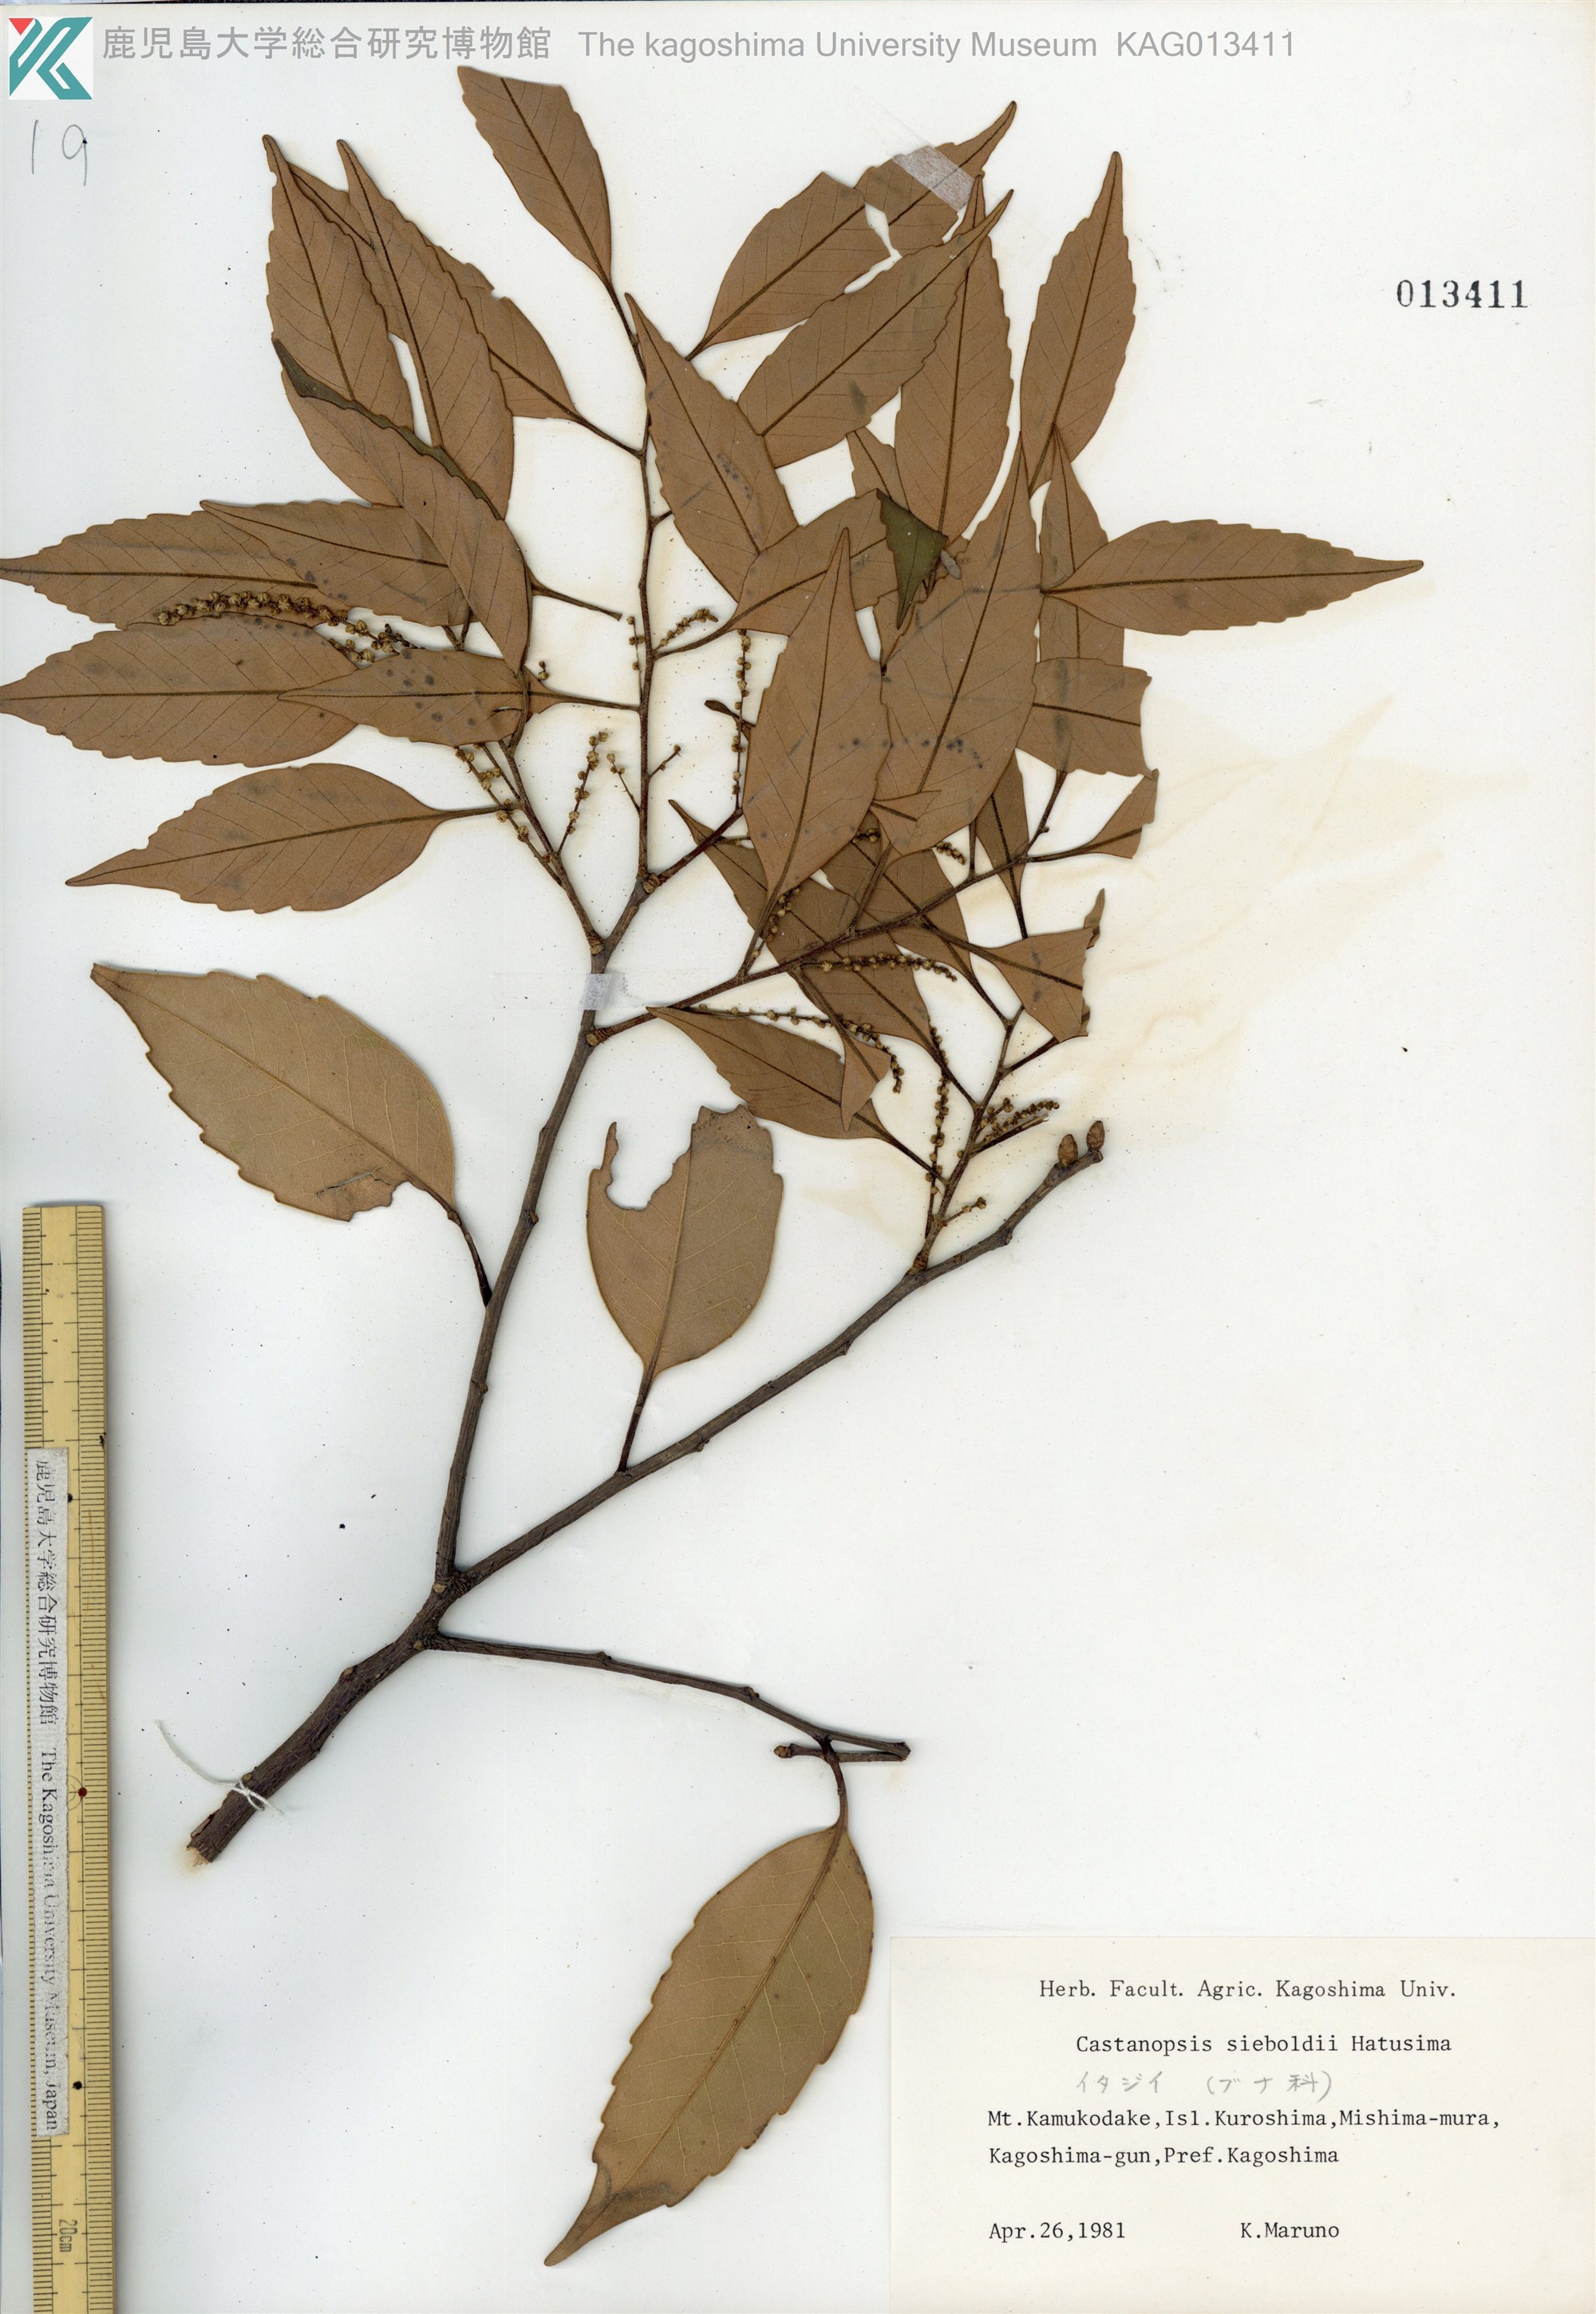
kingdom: Plantae
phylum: Tracheophyta
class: Magnoliopsida
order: Fagales
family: Fagaceae
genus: Castanopsis
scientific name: Castanopsis sieboldii
